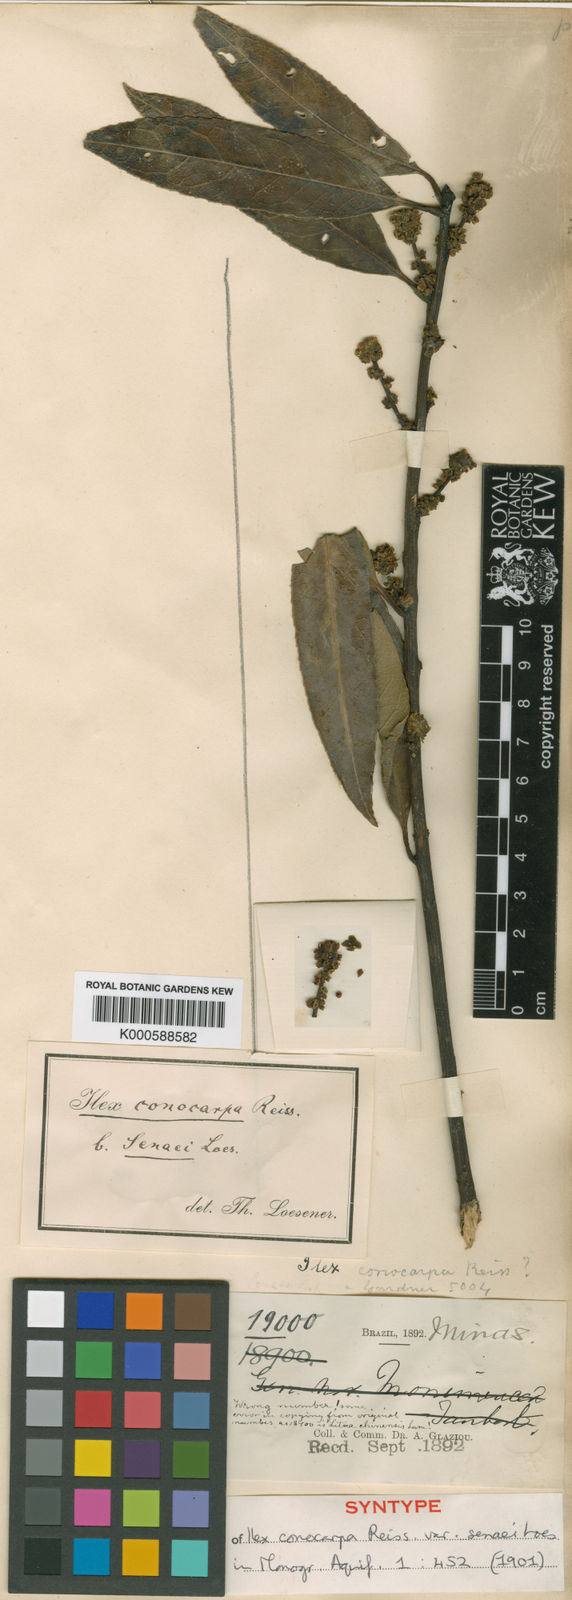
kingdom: Plantae
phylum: Tracheophyta
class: Magnoliopsida
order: Aquifoliales
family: Aquifoliaceae
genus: Ilex
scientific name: Ilex conocarpa
